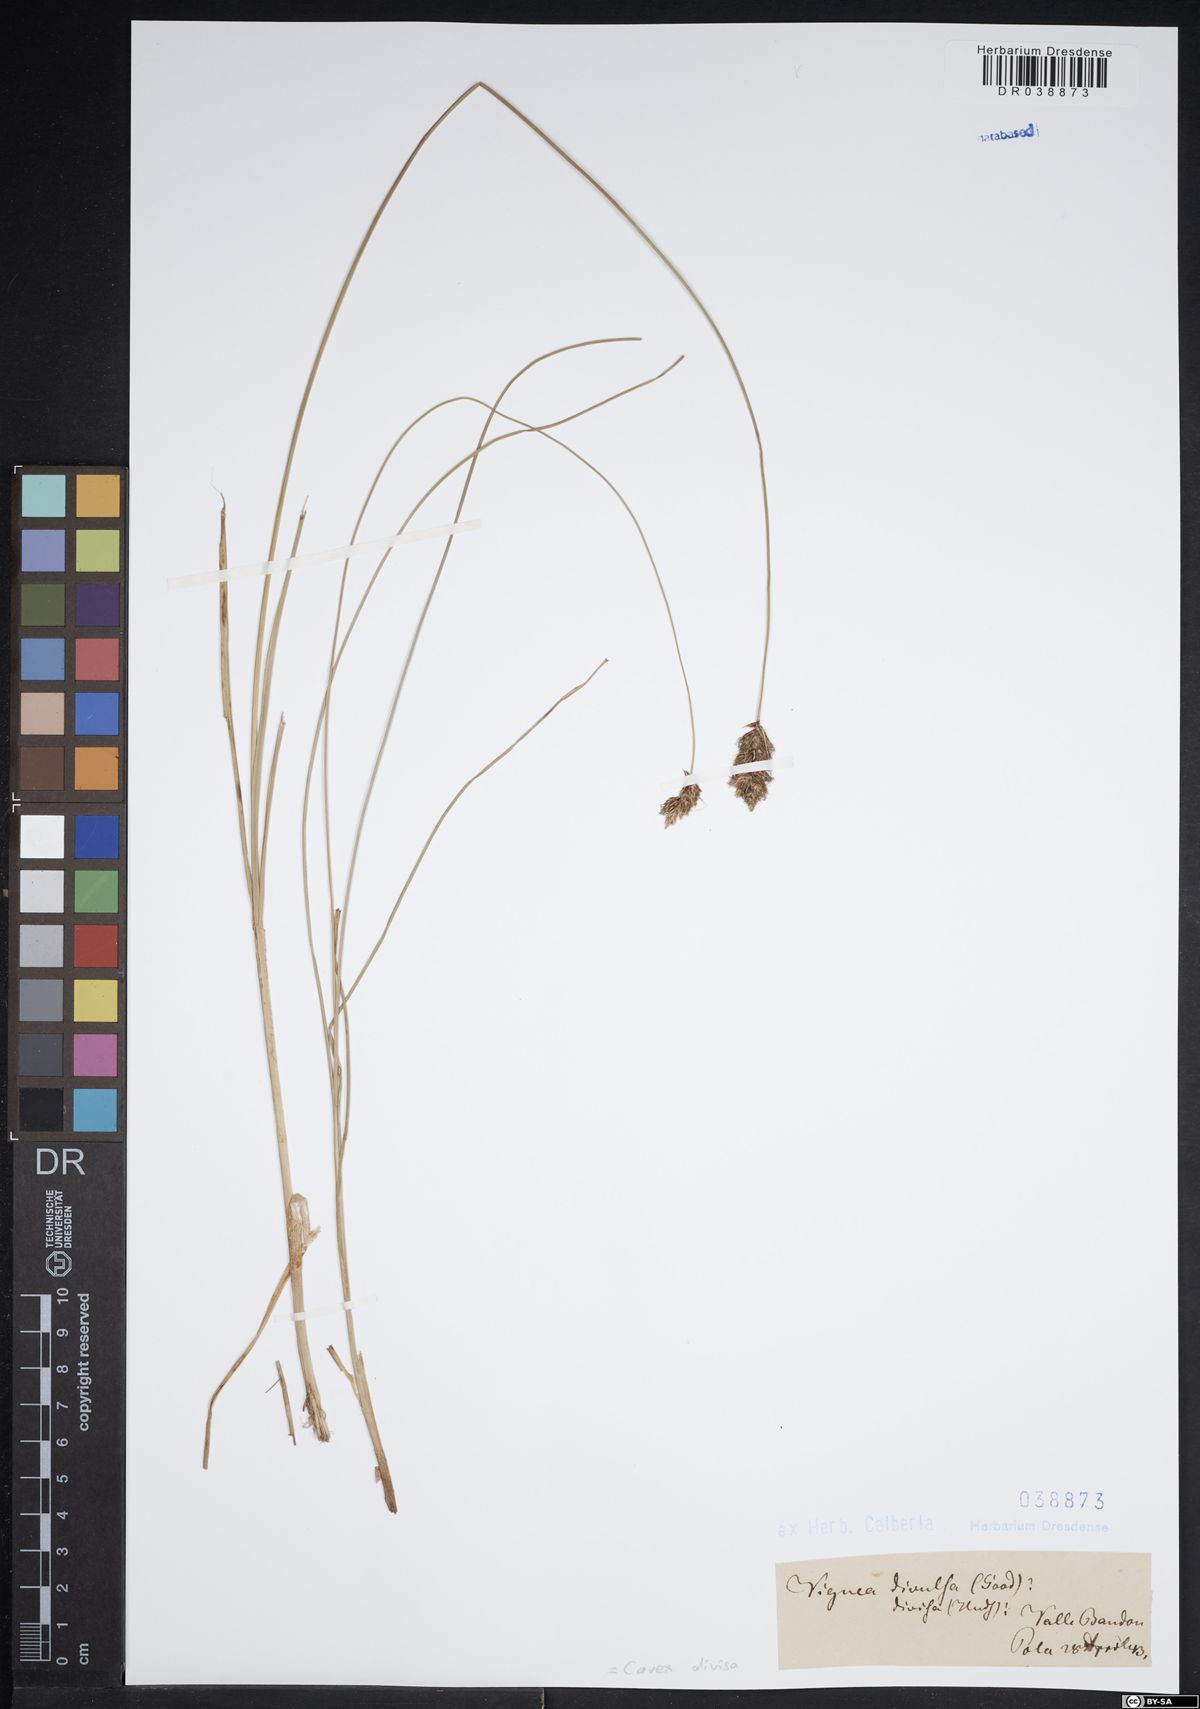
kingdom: Plantae
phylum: Tracheophyta
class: Liliopsida
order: Poales
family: Cyperaceae
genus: Carex
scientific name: Carex divisa
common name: Divided sedge
